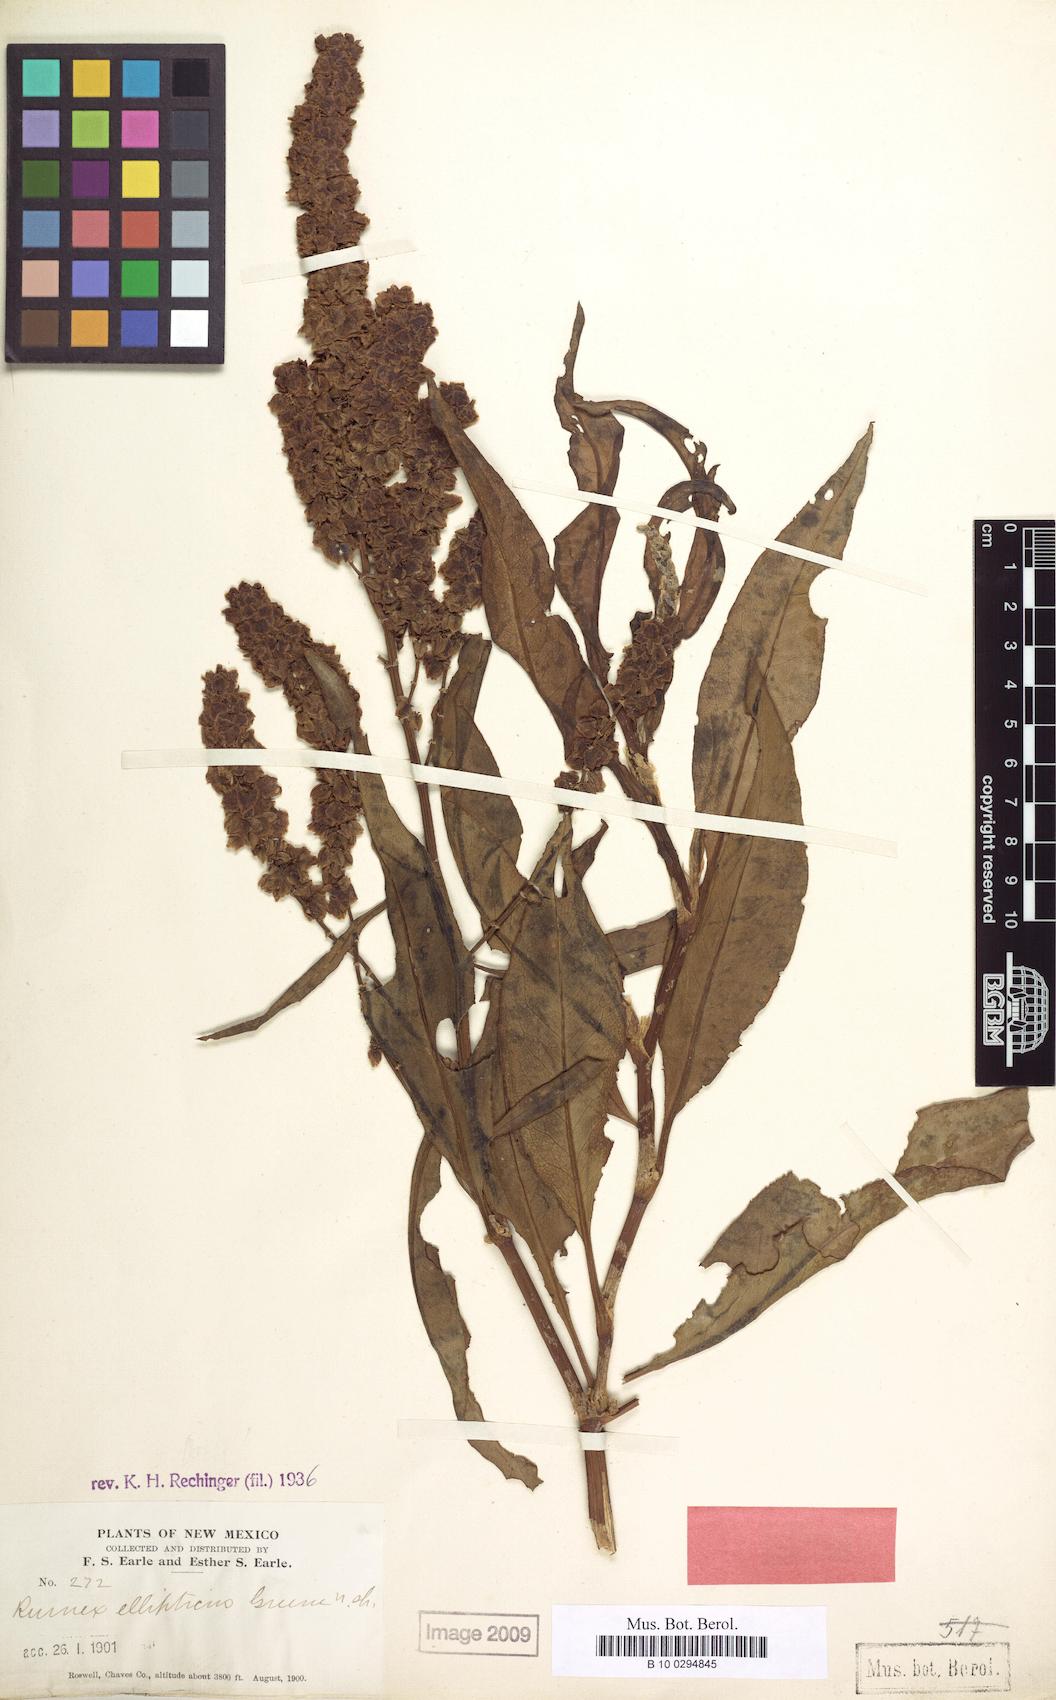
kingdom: Plantae
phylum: Tracheophyta
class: Magnoliopsida
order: Caryophyllales
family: Polygonaceae
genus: Rumex
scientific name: Rumex ellipticus
